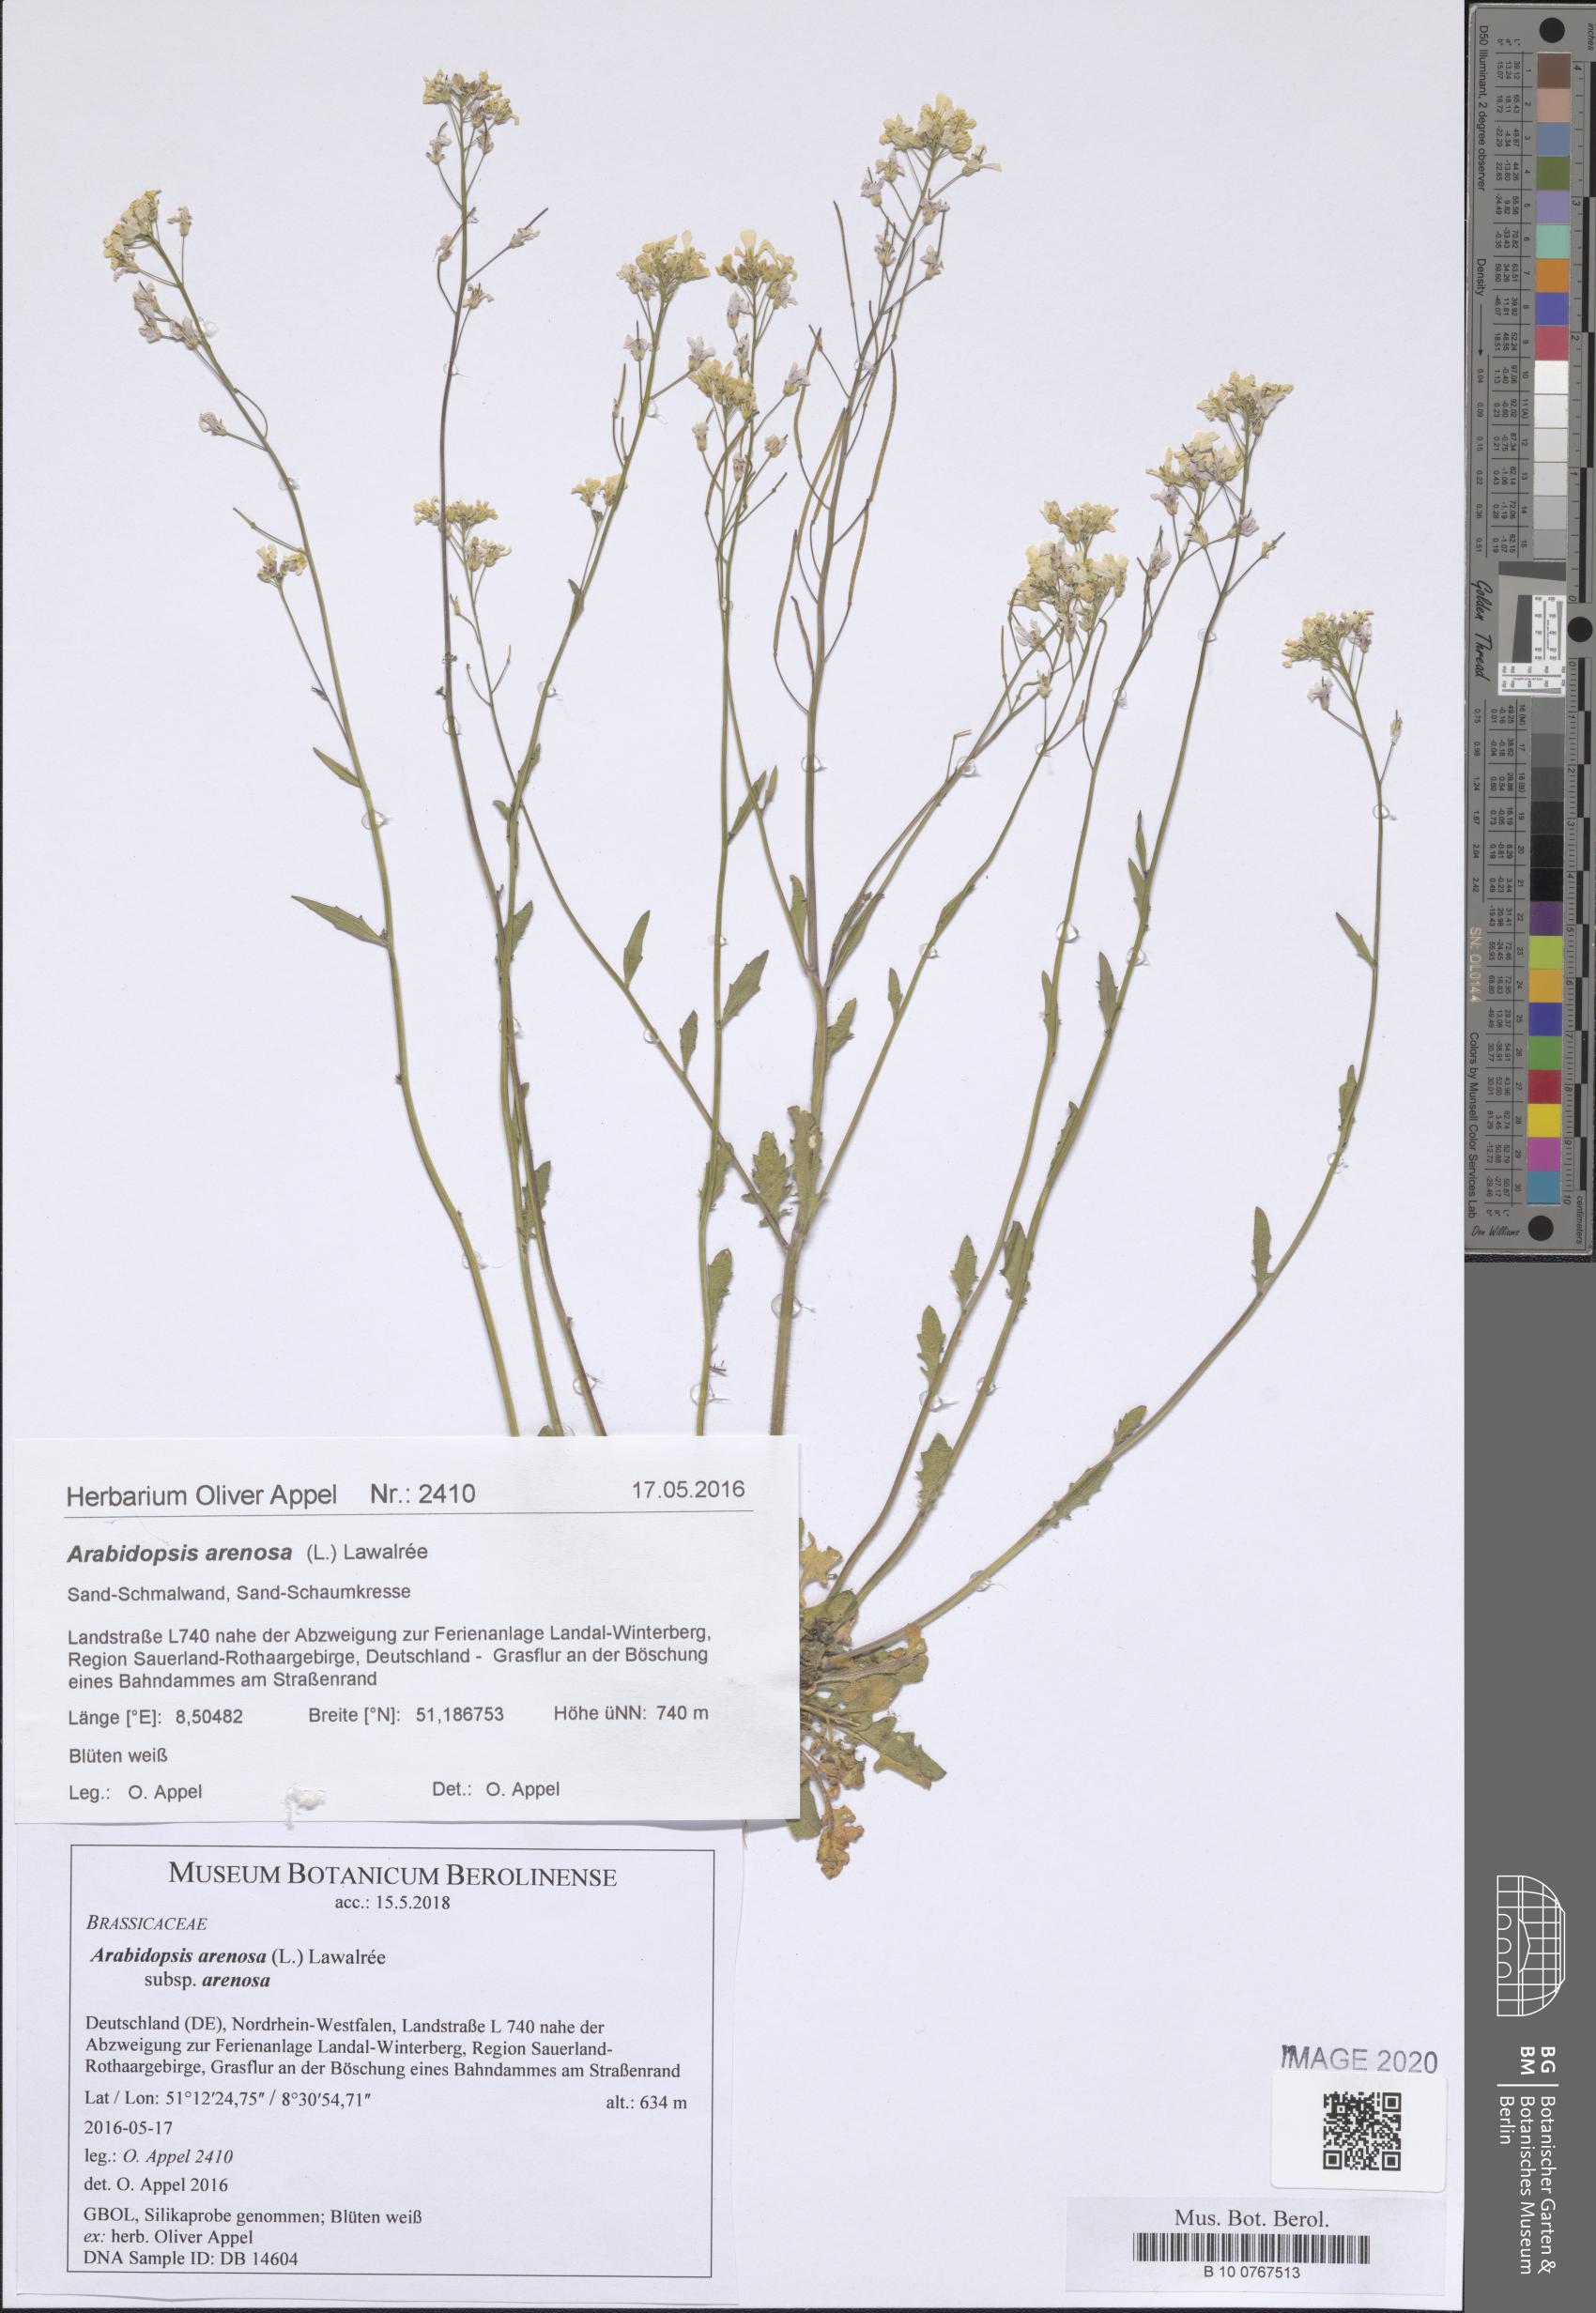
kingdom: Plantae
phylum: Tracheophyta
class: Magnoliopsida
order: Brassicales
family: Brassicaceae
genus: Arabidopsis
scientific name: Arabidopsis arenosa
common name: Sand rock-cress
